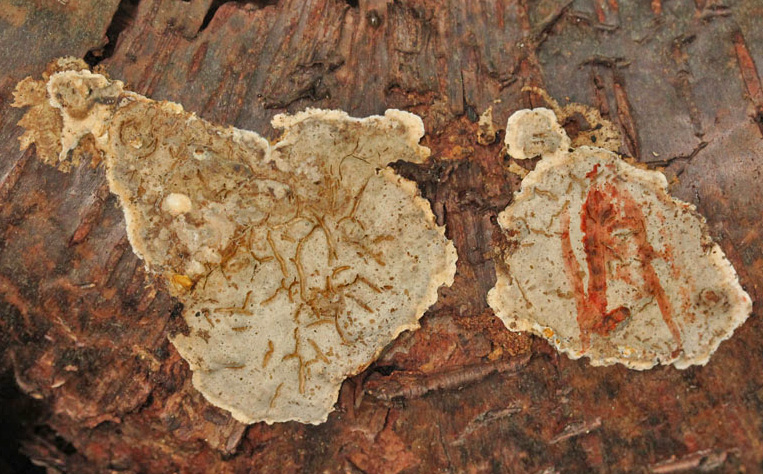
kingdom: Fungi
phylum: Basidiomycota
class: Agaricomycetes
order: Russulales
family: Stereaceae
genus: Stereum
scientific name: Stereum rugosum
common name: rynket lædersvamp
